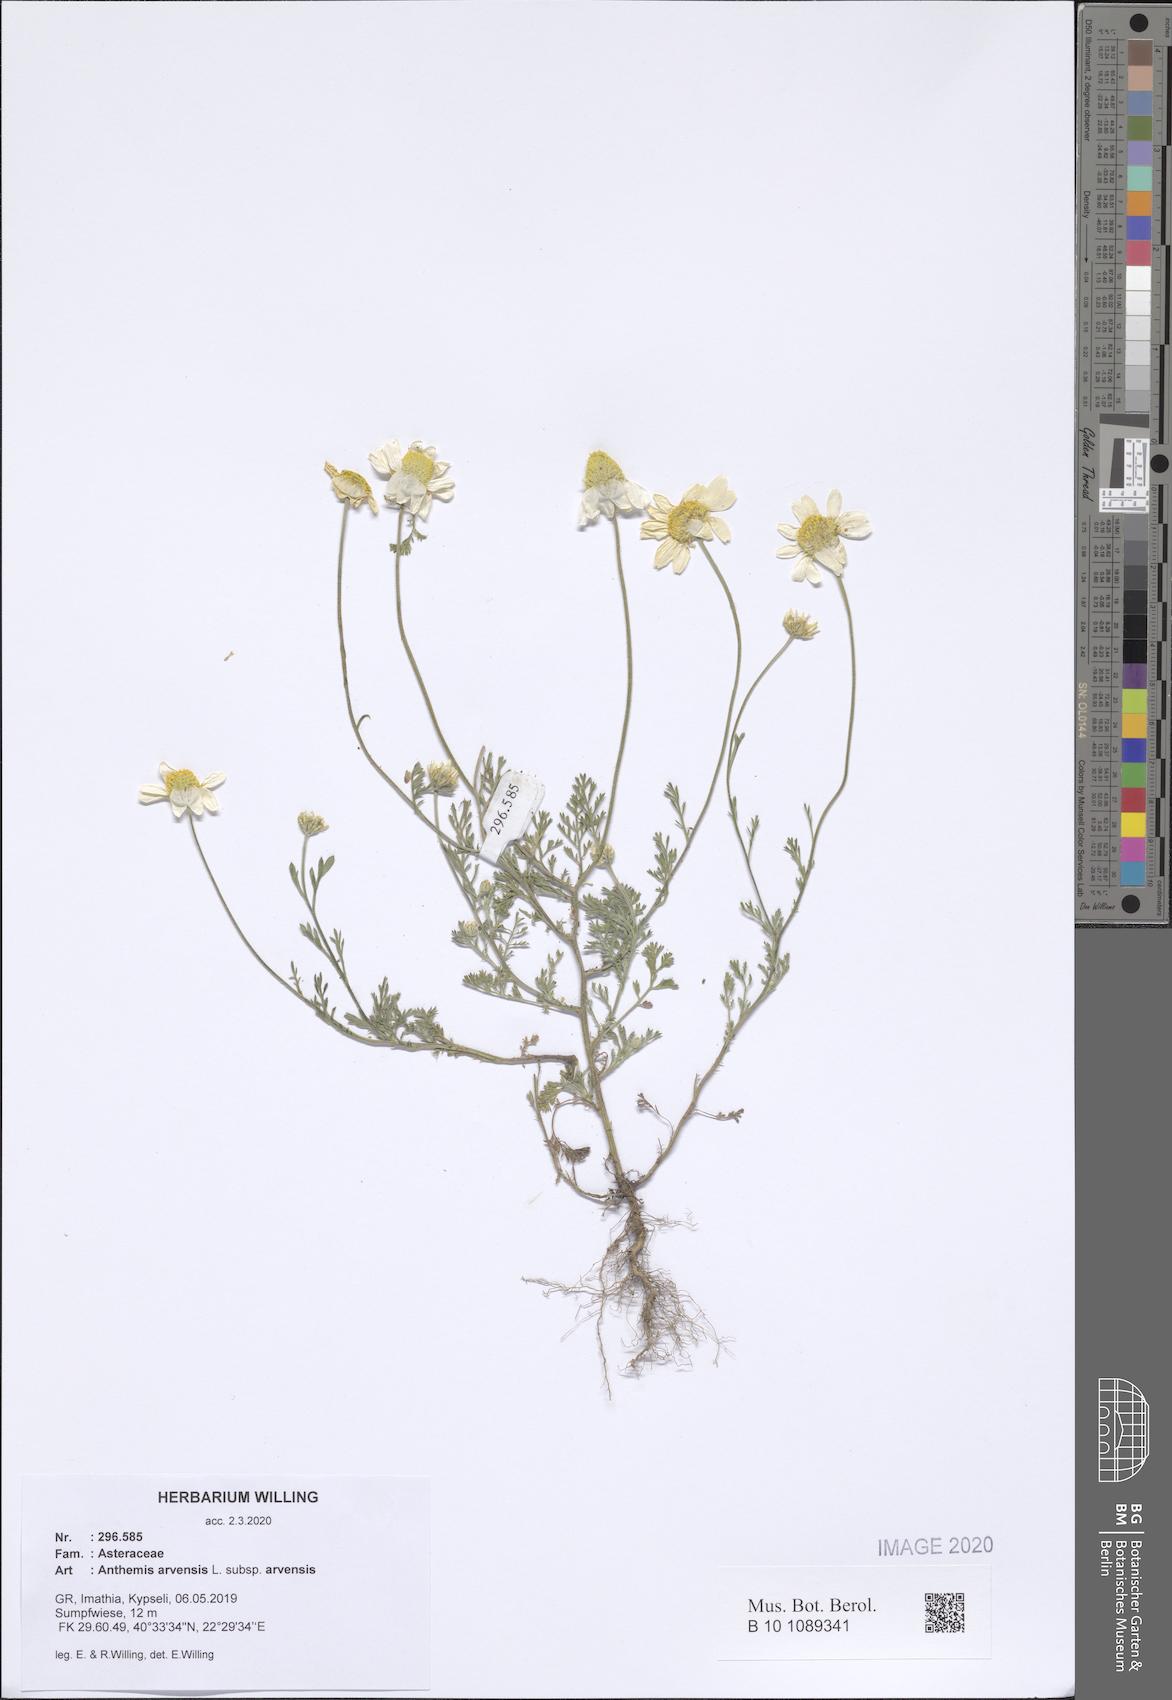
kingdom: Plantae
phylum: Tracheophyta
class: Magnoliopsida
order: Asterales
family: Asteraceae
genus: Anthemis
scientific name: Anthemis arvensis
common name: Corn chamomile
